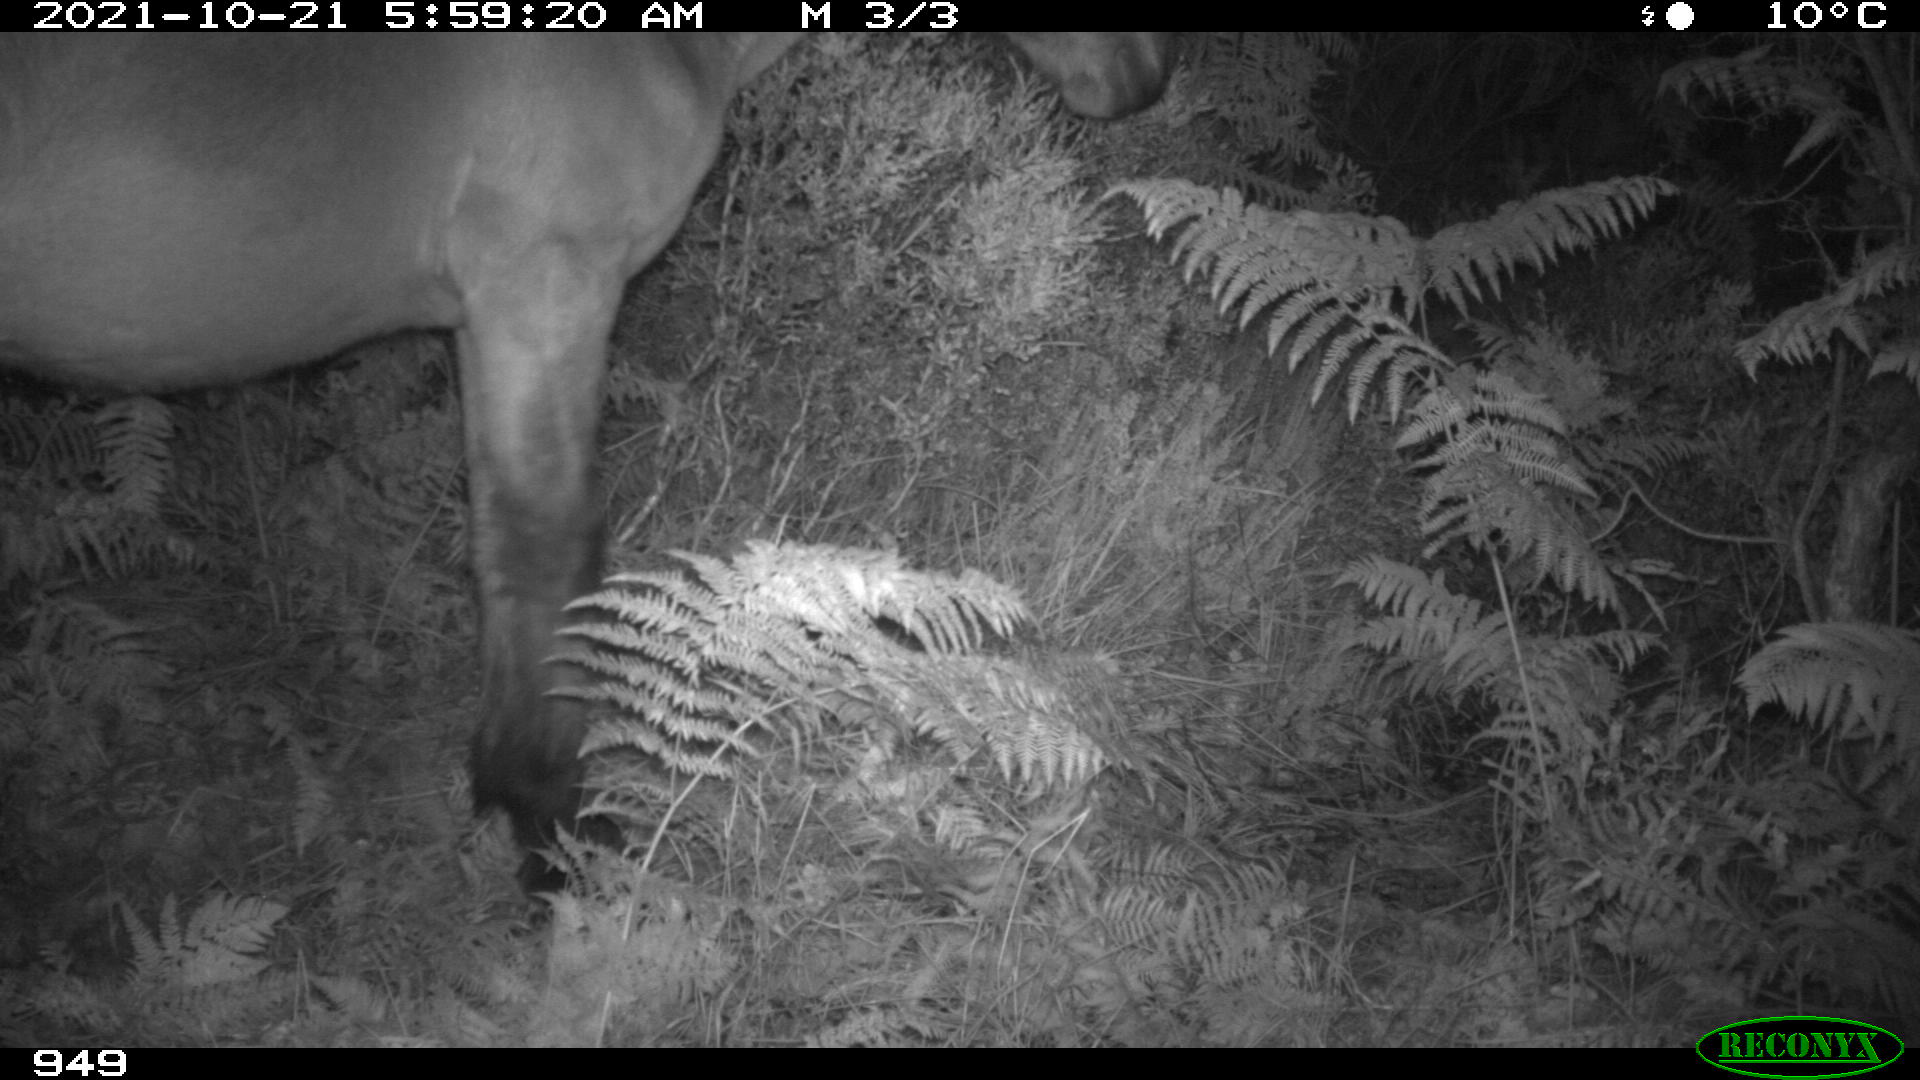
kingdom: Animalia
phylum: Chordata
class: Mammalia
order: Perissodactyla
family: Equidae
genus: Equus
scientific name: Equus caballus
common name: Horse
